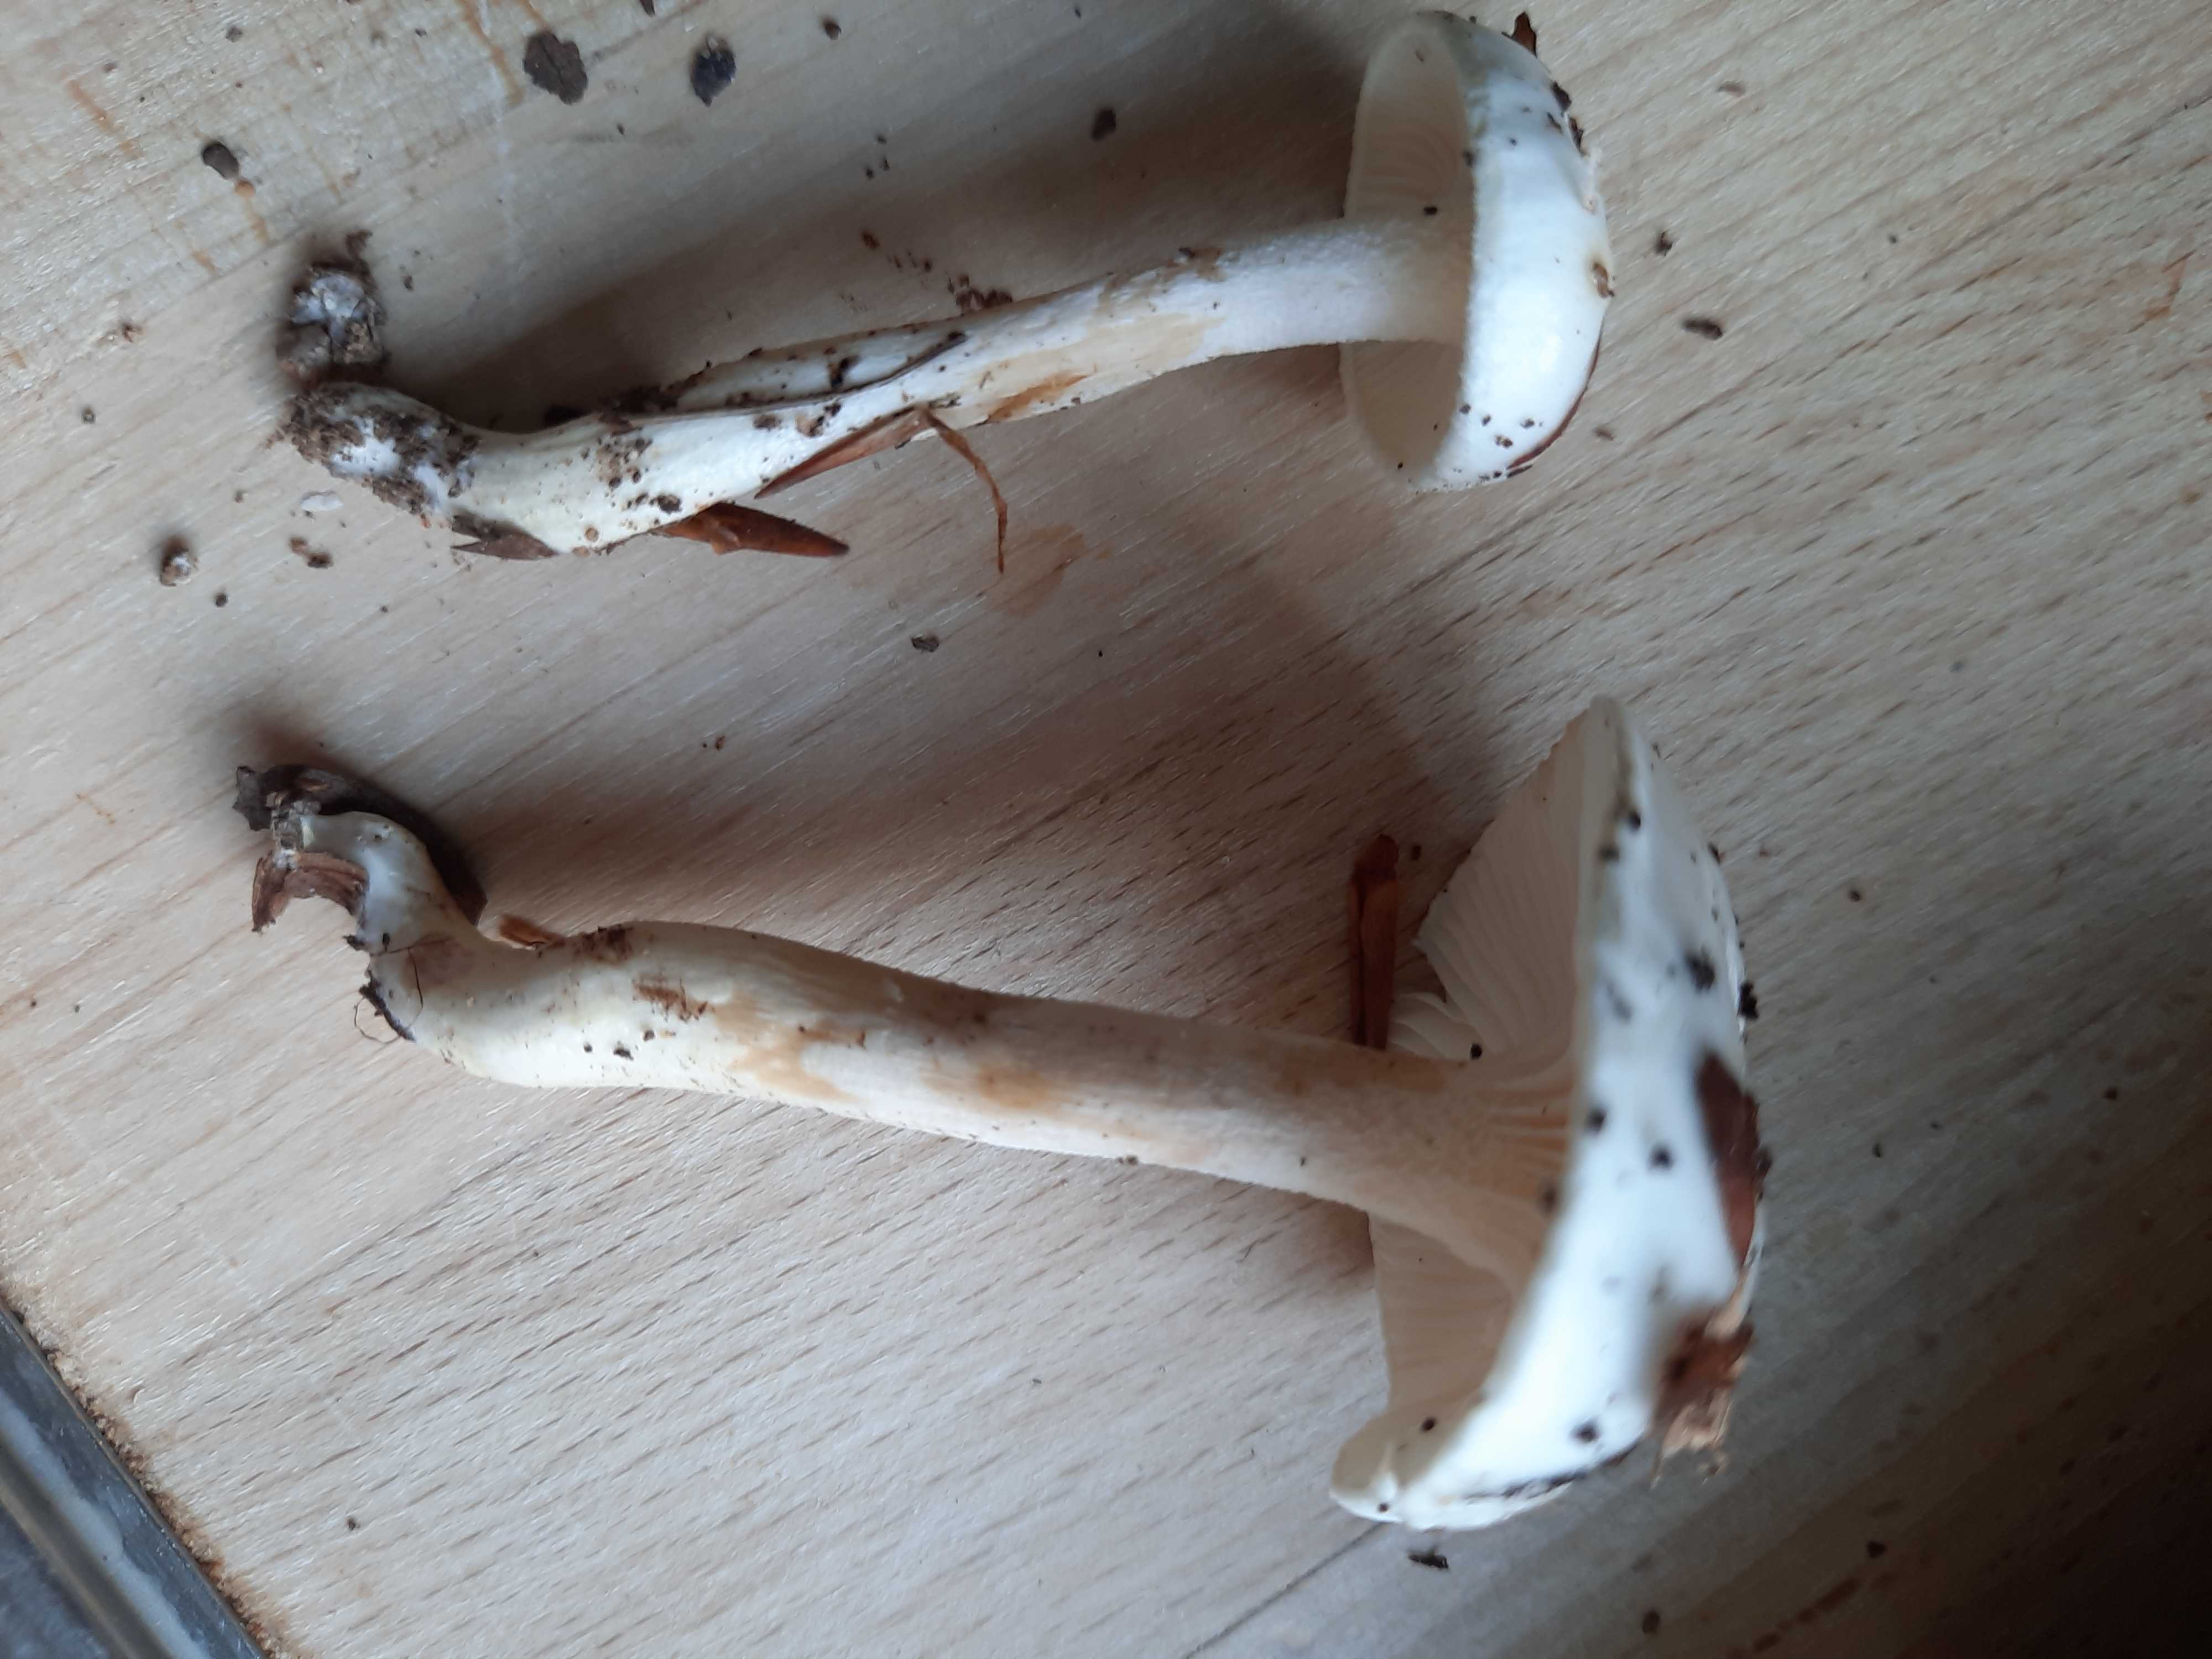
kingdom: Fungi
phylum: Basidiomycota
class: Agaricomycetes
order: Agaricales
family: Hygrophoraceae
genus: Hygrophorus
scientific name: Hygrophorus
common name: sneglehat
